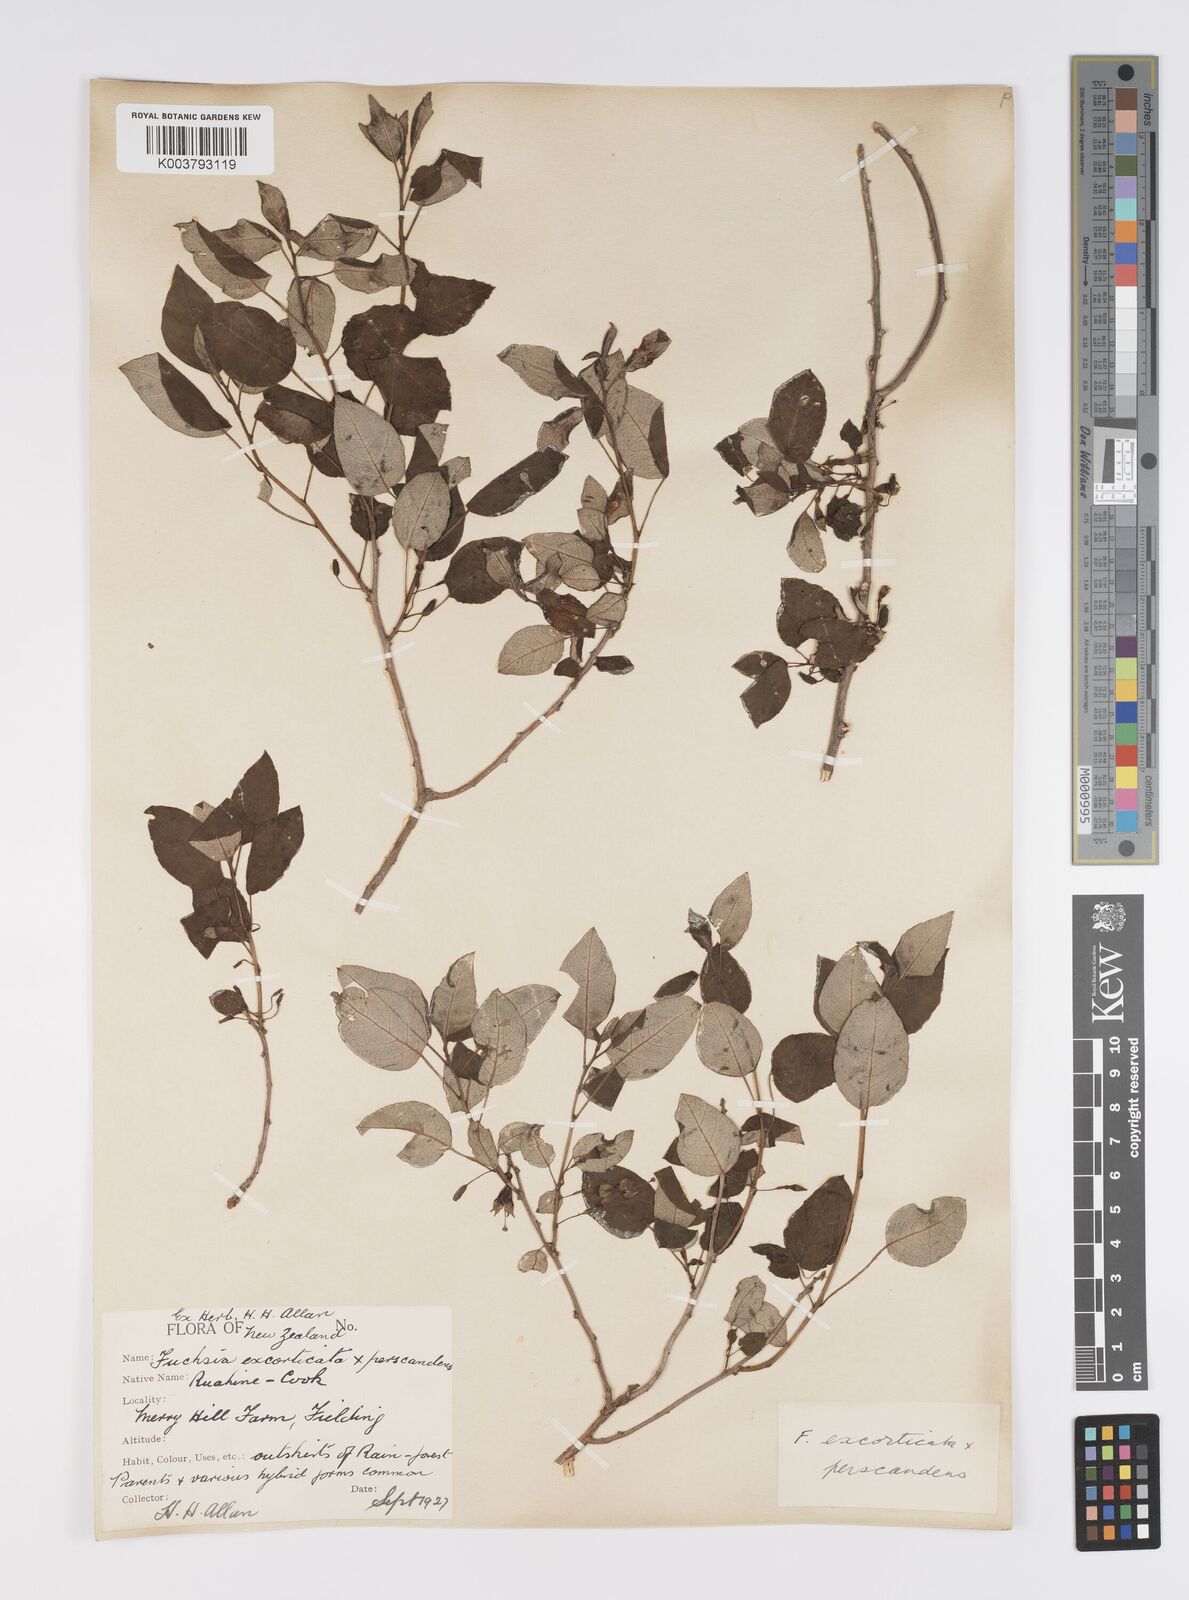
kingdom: Plantae
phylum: Tracheophyta
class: Magnoliopsida
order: Myrtales
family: Onagraceae
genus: Fuchsia
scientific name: Fuchsia excorticata
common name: Tree fuchsia
